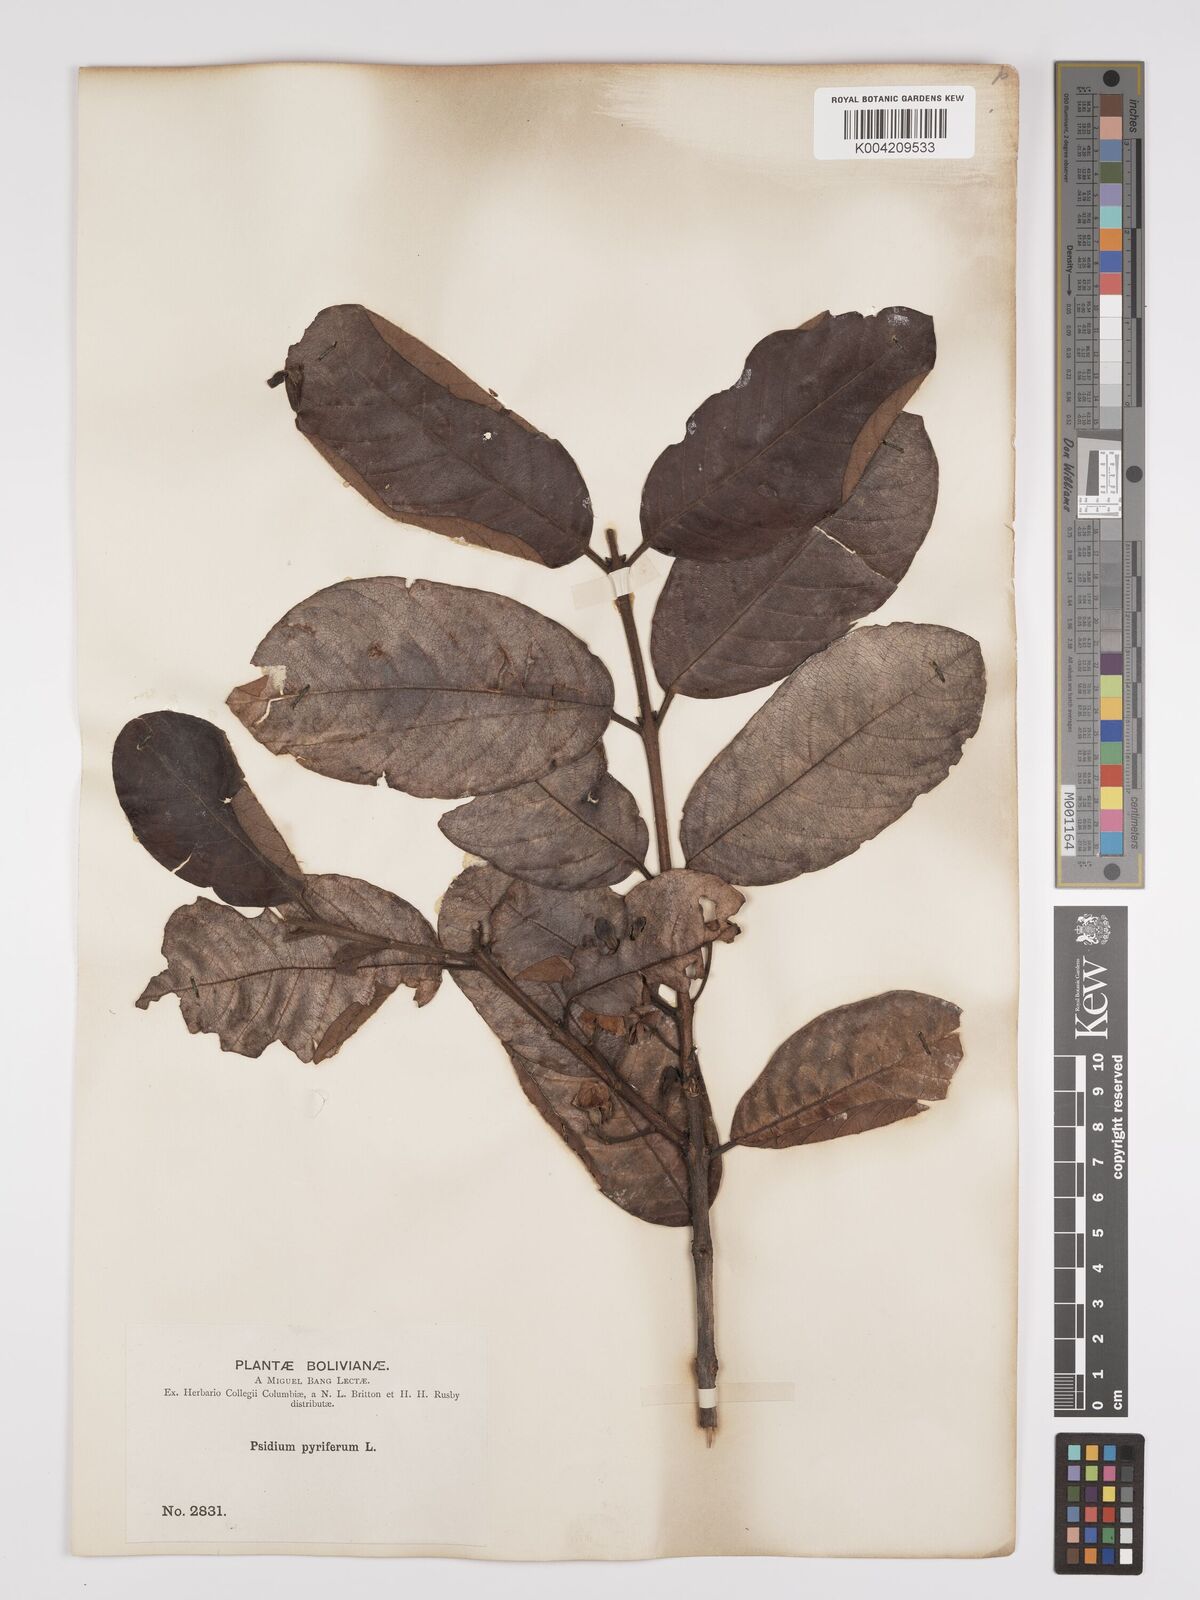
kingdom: Plantae
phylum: Tracheophyta
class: Magnoliopsida
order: Myrtales
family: Myrtaceae
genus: Psidium
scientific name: Psidium guajava
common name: Guava
